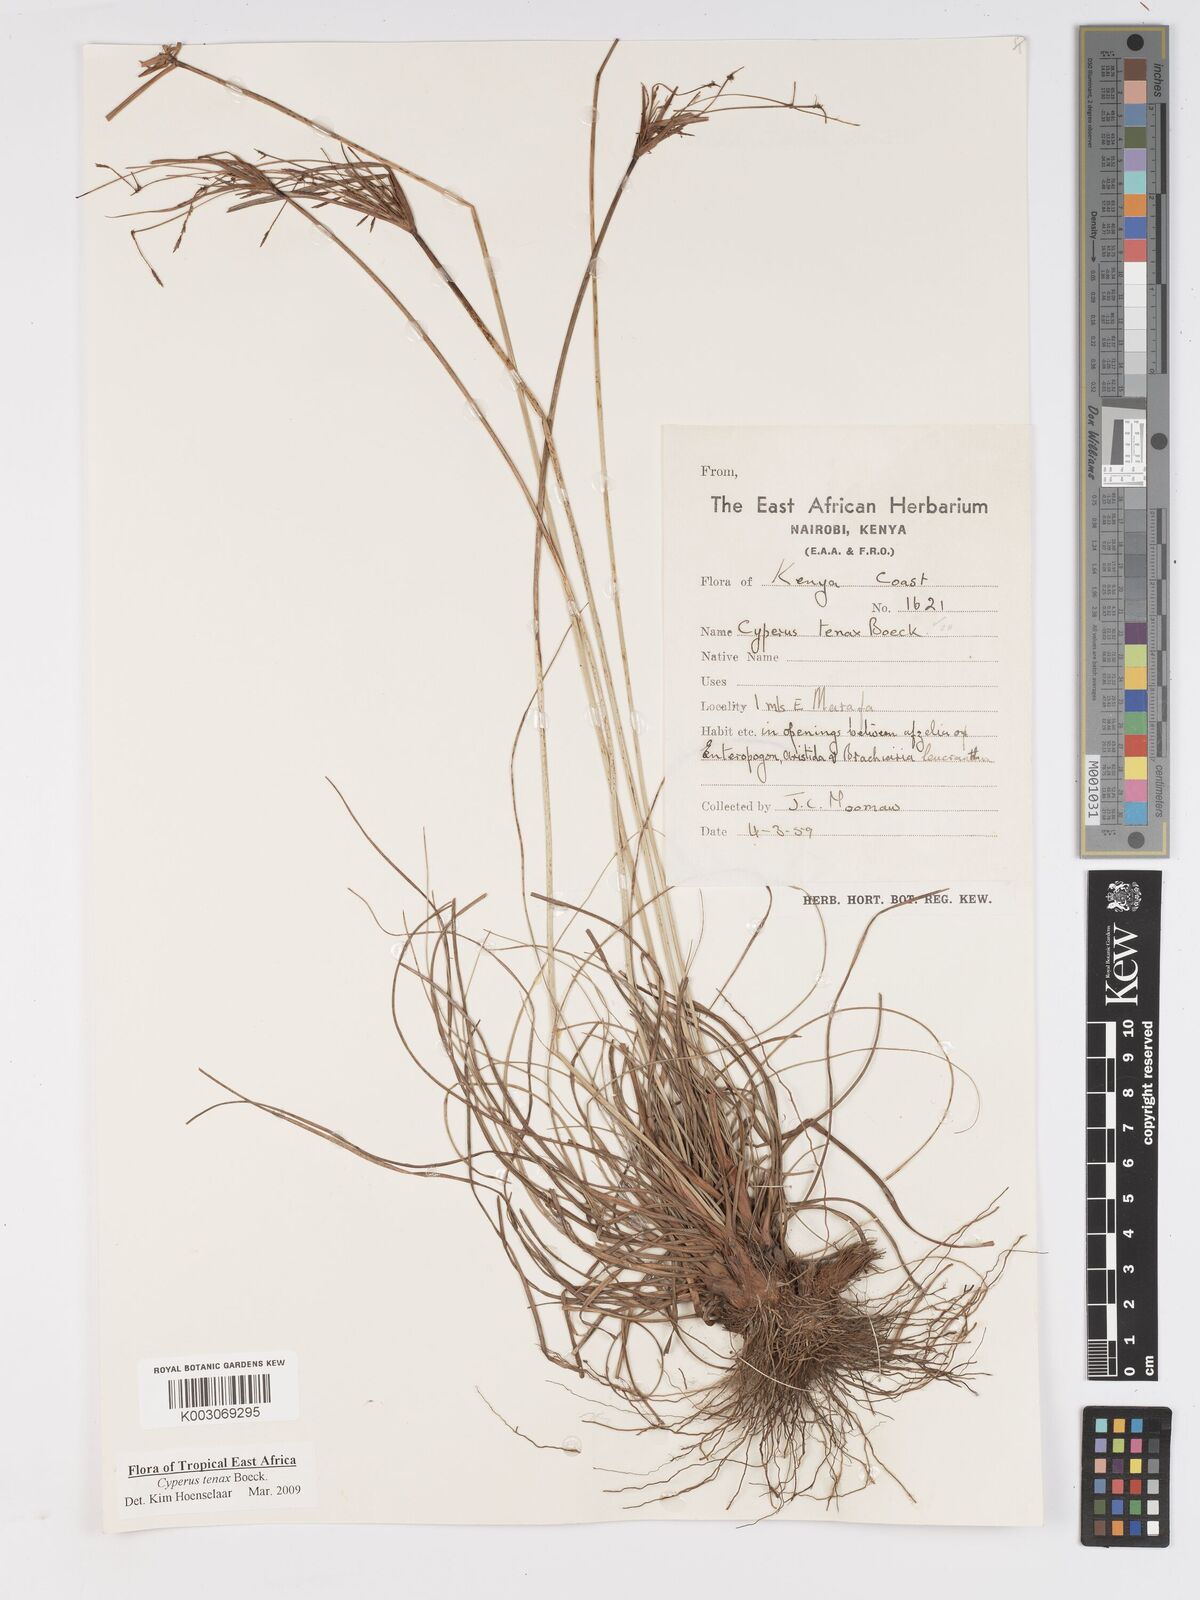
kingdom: Plantae
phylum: Tracheophyta
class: Liliopsida
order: Poales
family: Cyperaceae
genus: Cyperus
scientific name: Cyperus tenax
